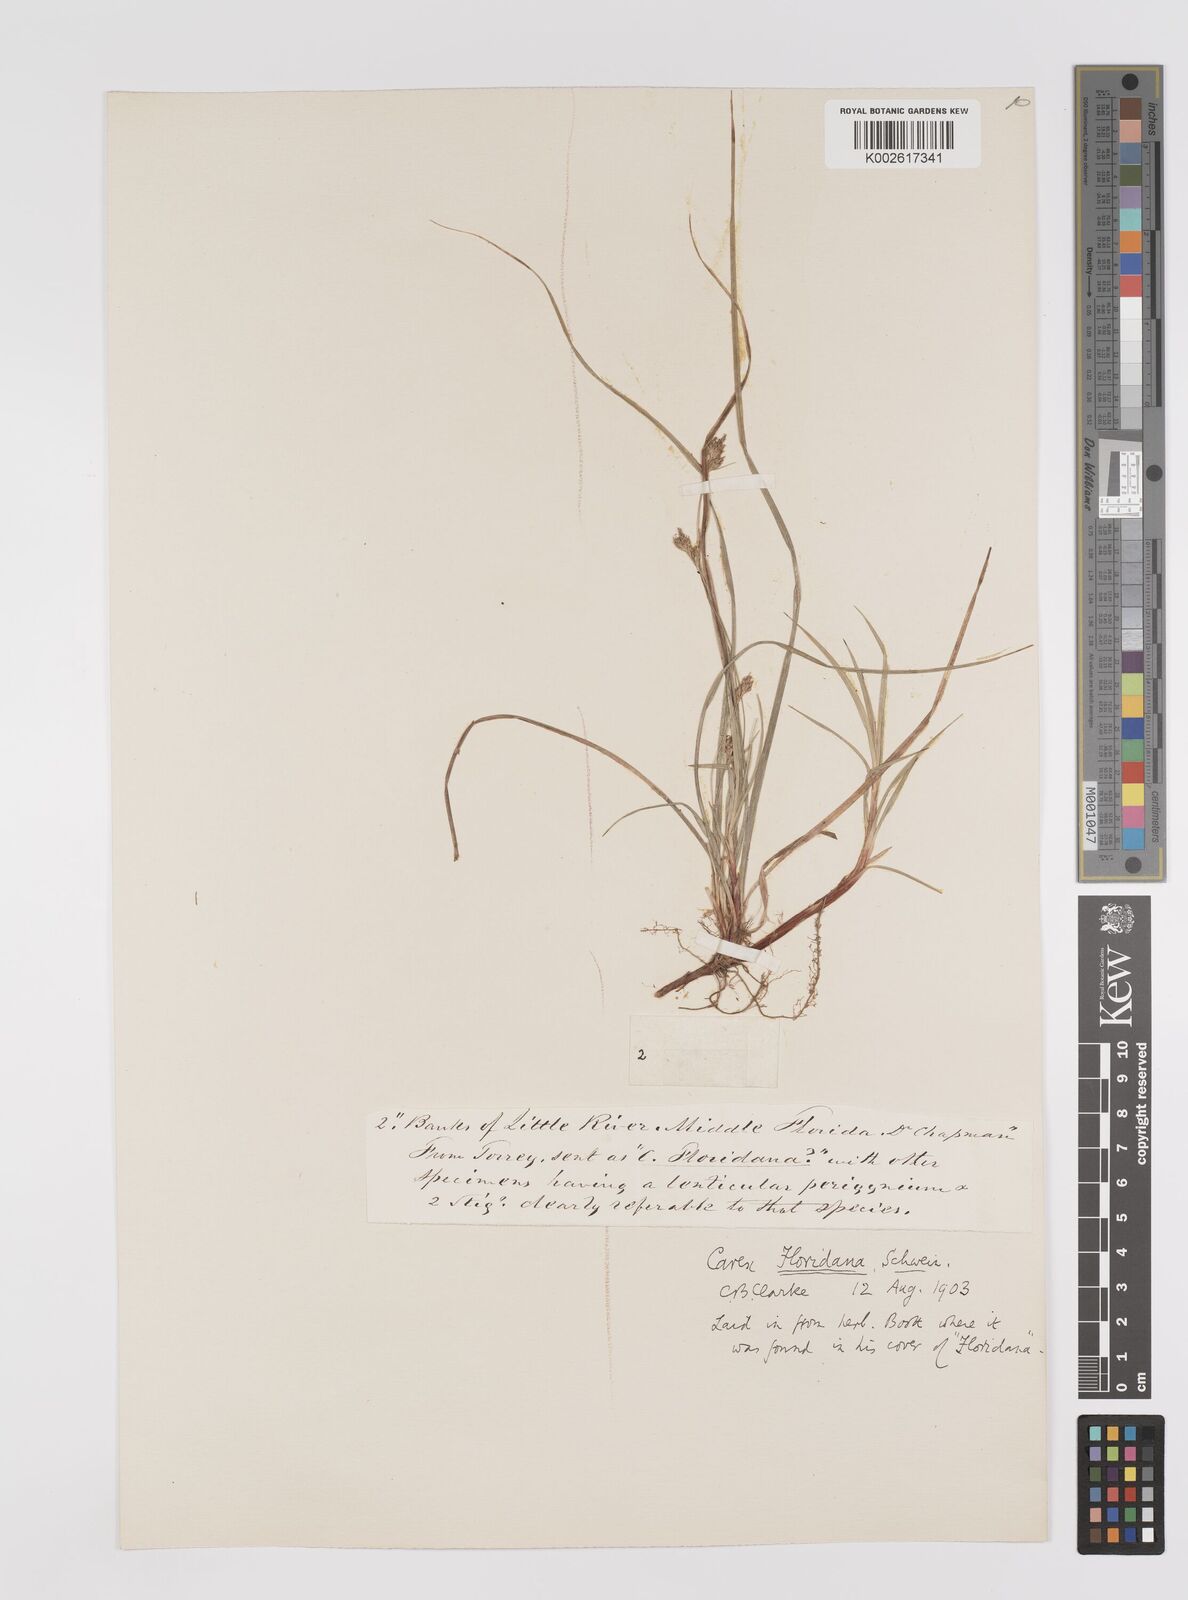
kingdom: Plantae
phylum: Tracheophyta
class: Liliopsida
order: Poales
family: Cyperaceae
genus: Carex
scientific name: Carex floridana
